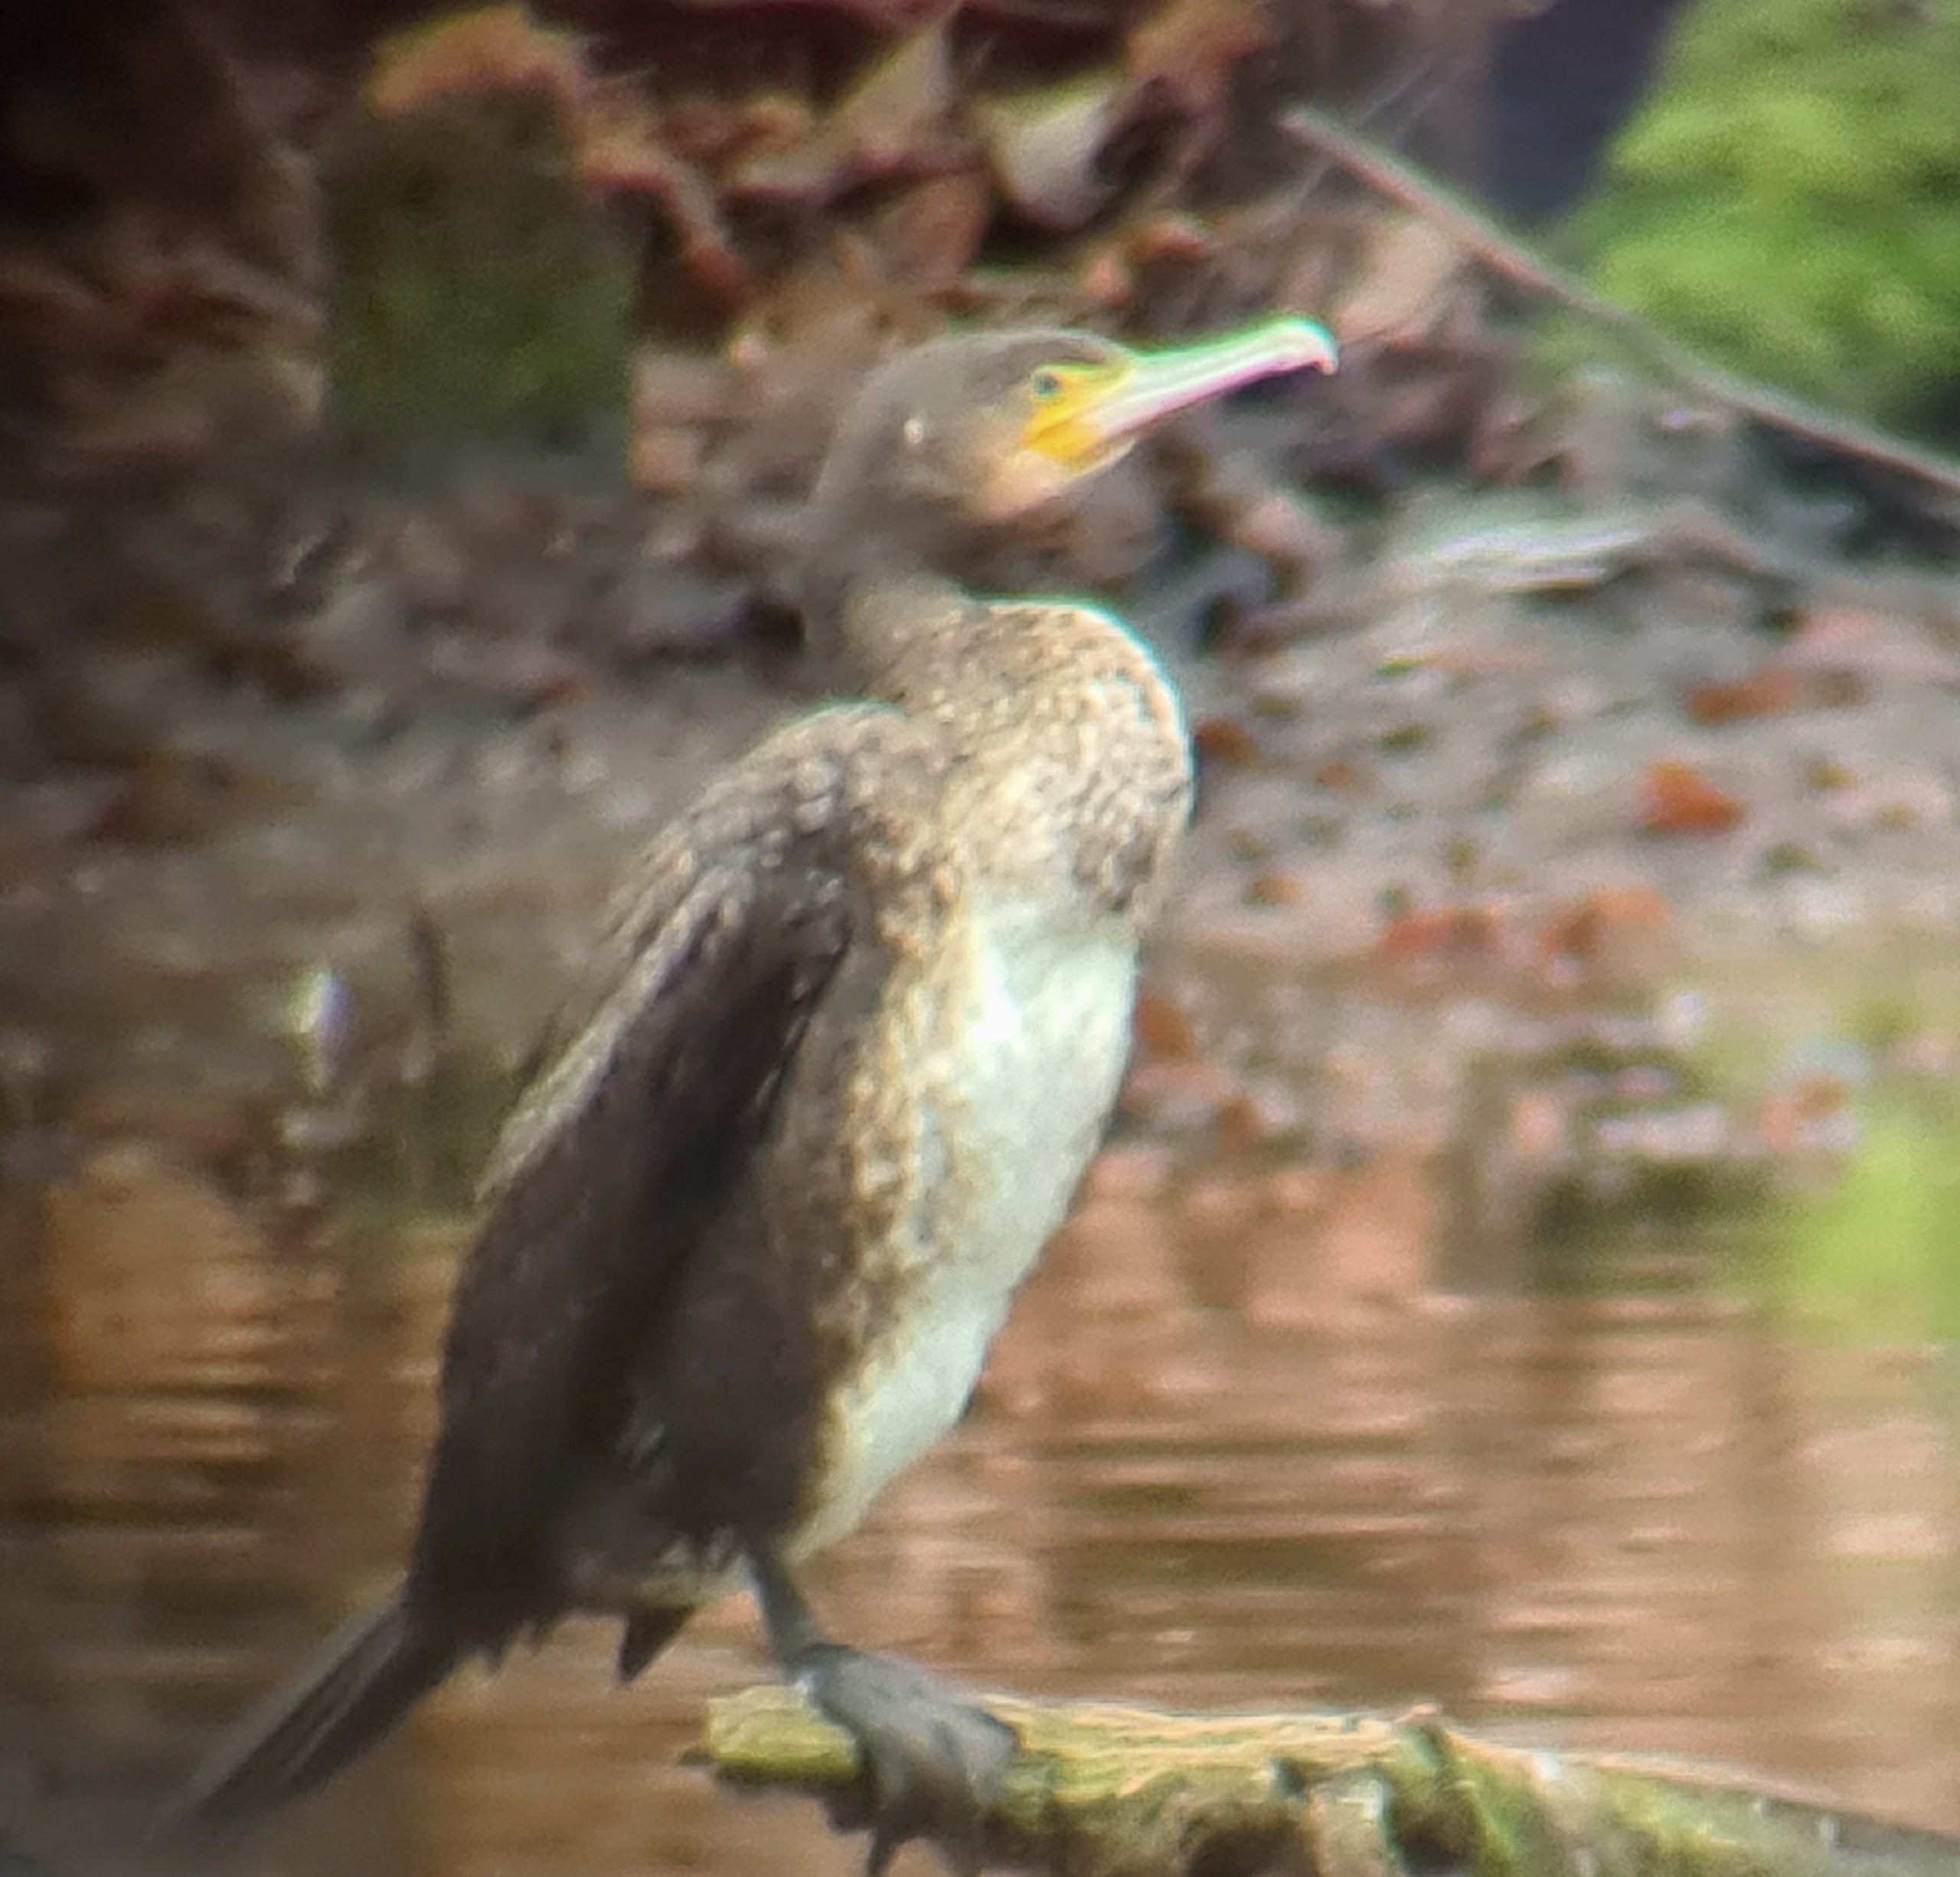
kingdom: Animalia
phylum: Chordata
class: Aves
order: Suliformes
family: Phalacrocoracidae
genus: Phalacrocorax
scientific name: Phalacrocorax carbo
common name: Skarv
